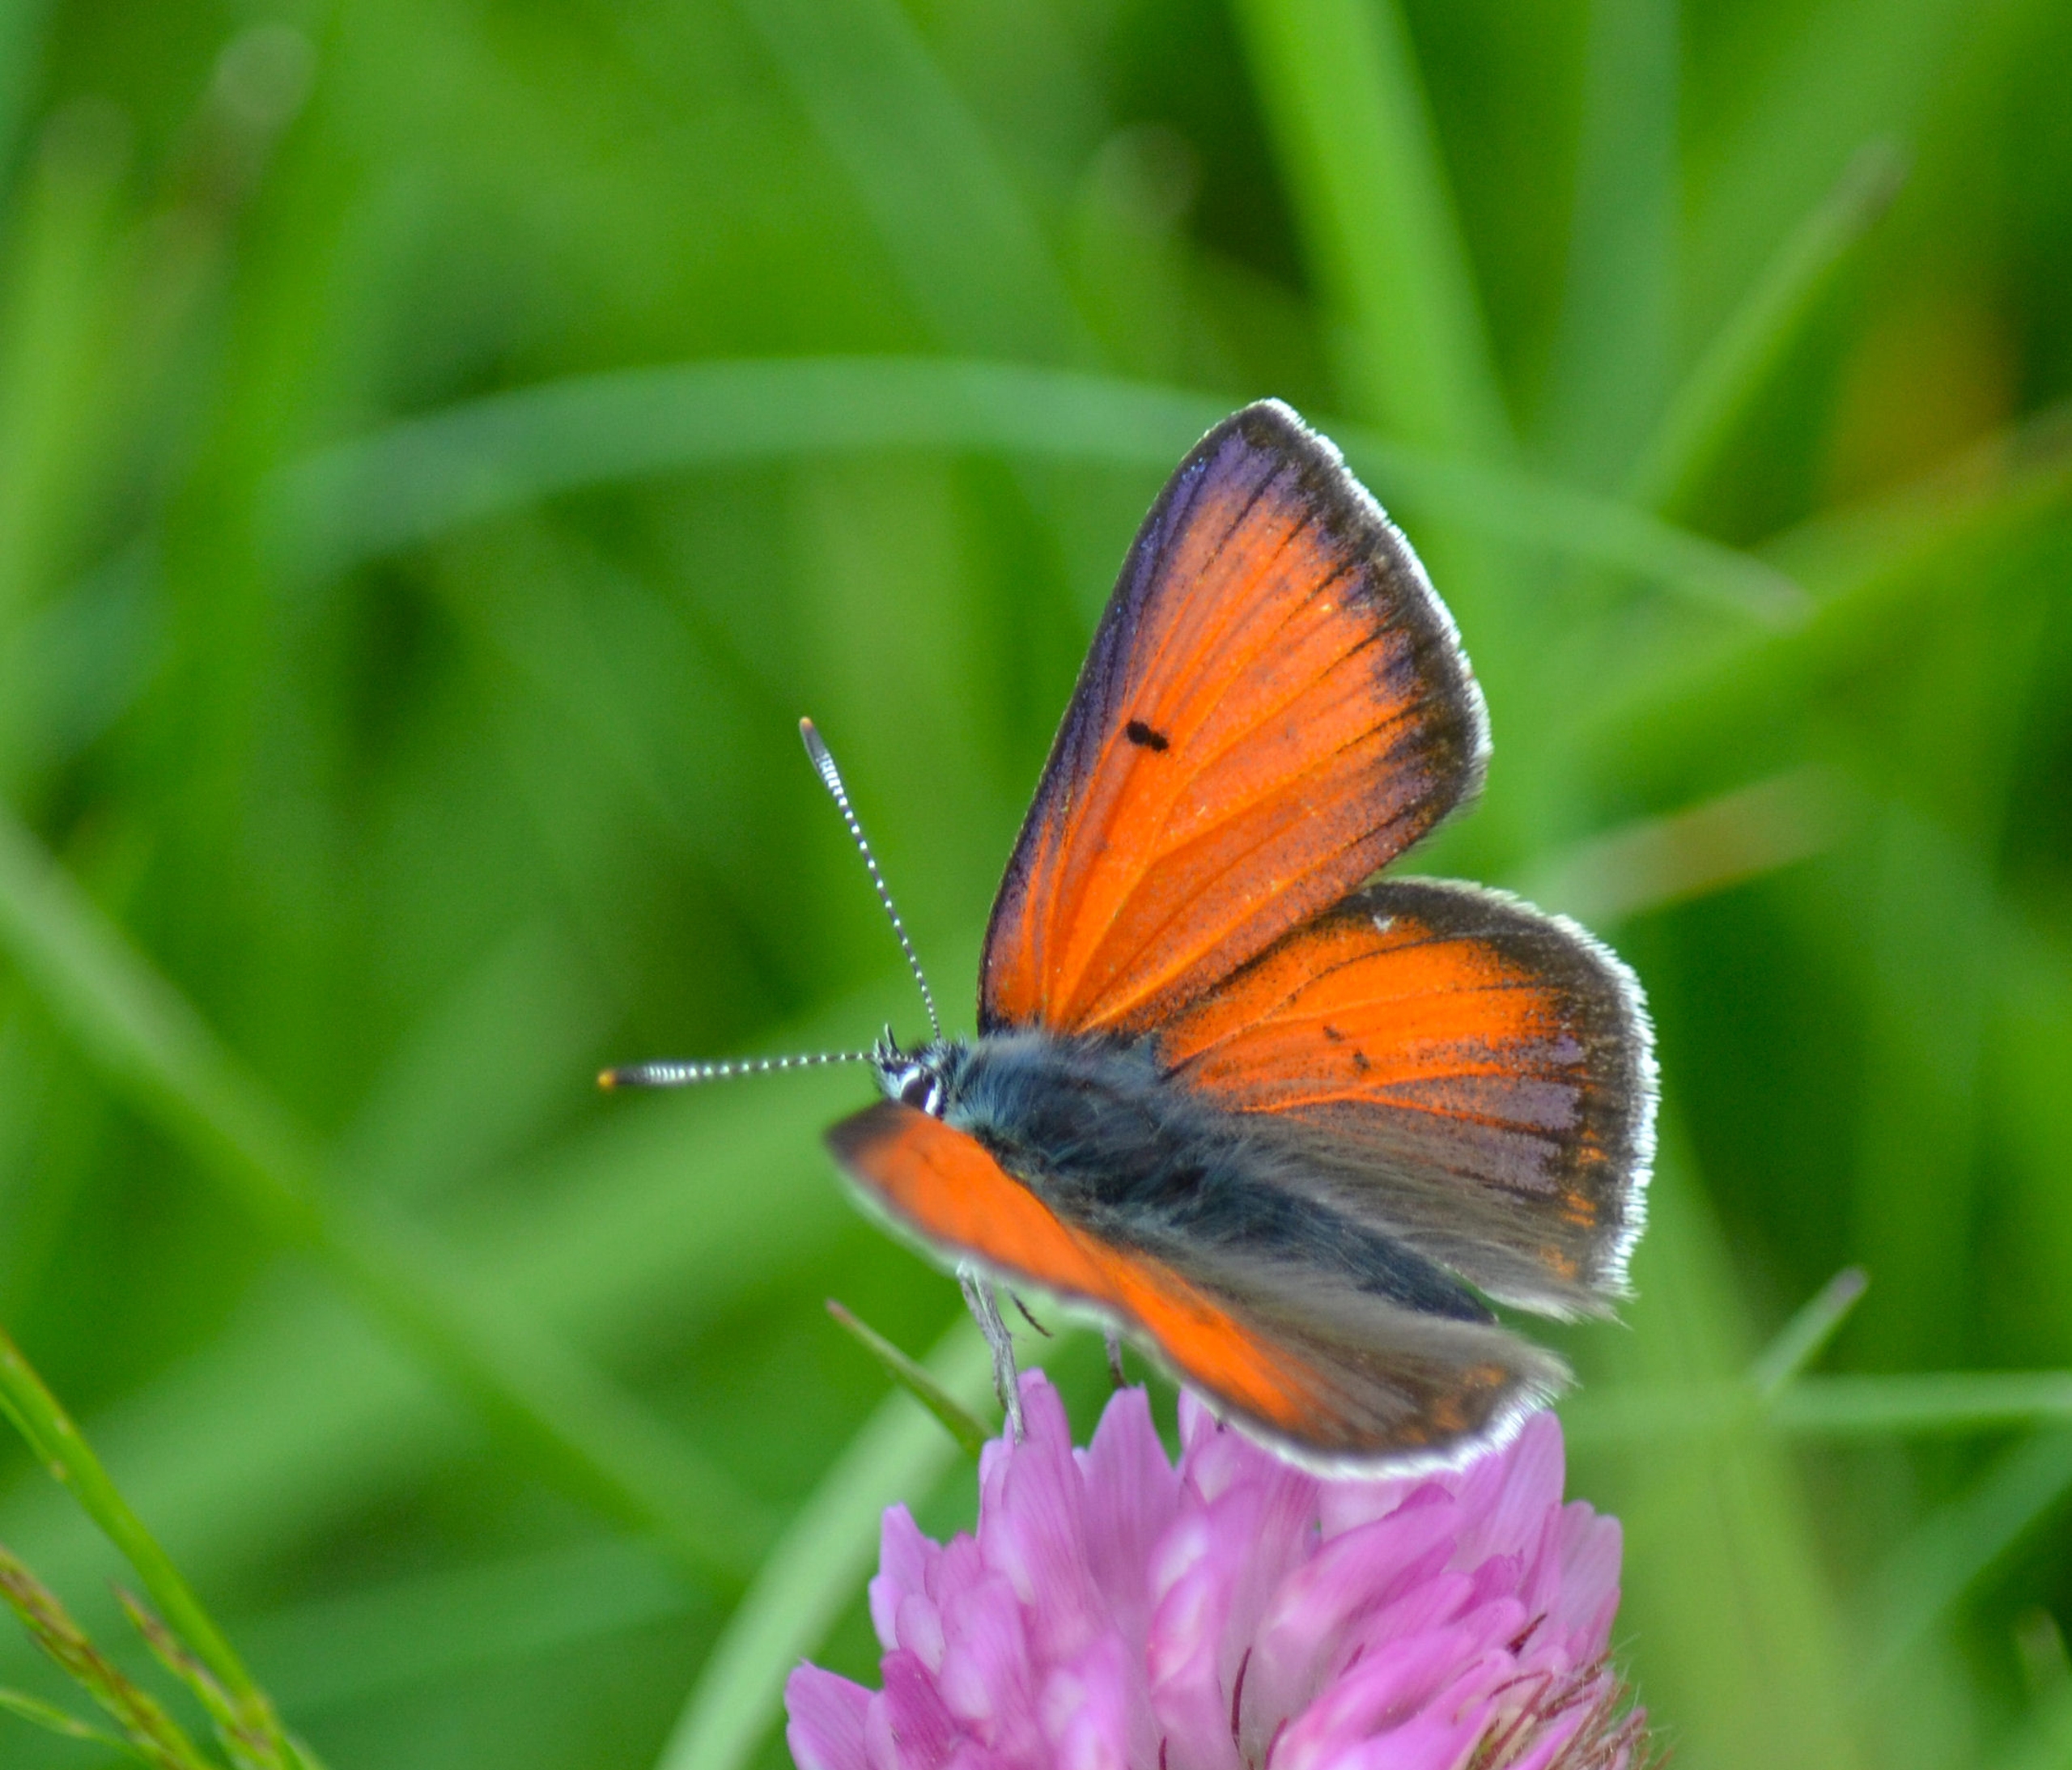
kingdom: Animalia
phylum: Arthropoda
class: Insecta
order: Lepidoptera
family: Lycaenidae
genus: Palaeochrysophanus
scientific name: Palaeochrysophanus hippothoe
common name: Violetrandet ildfugl
